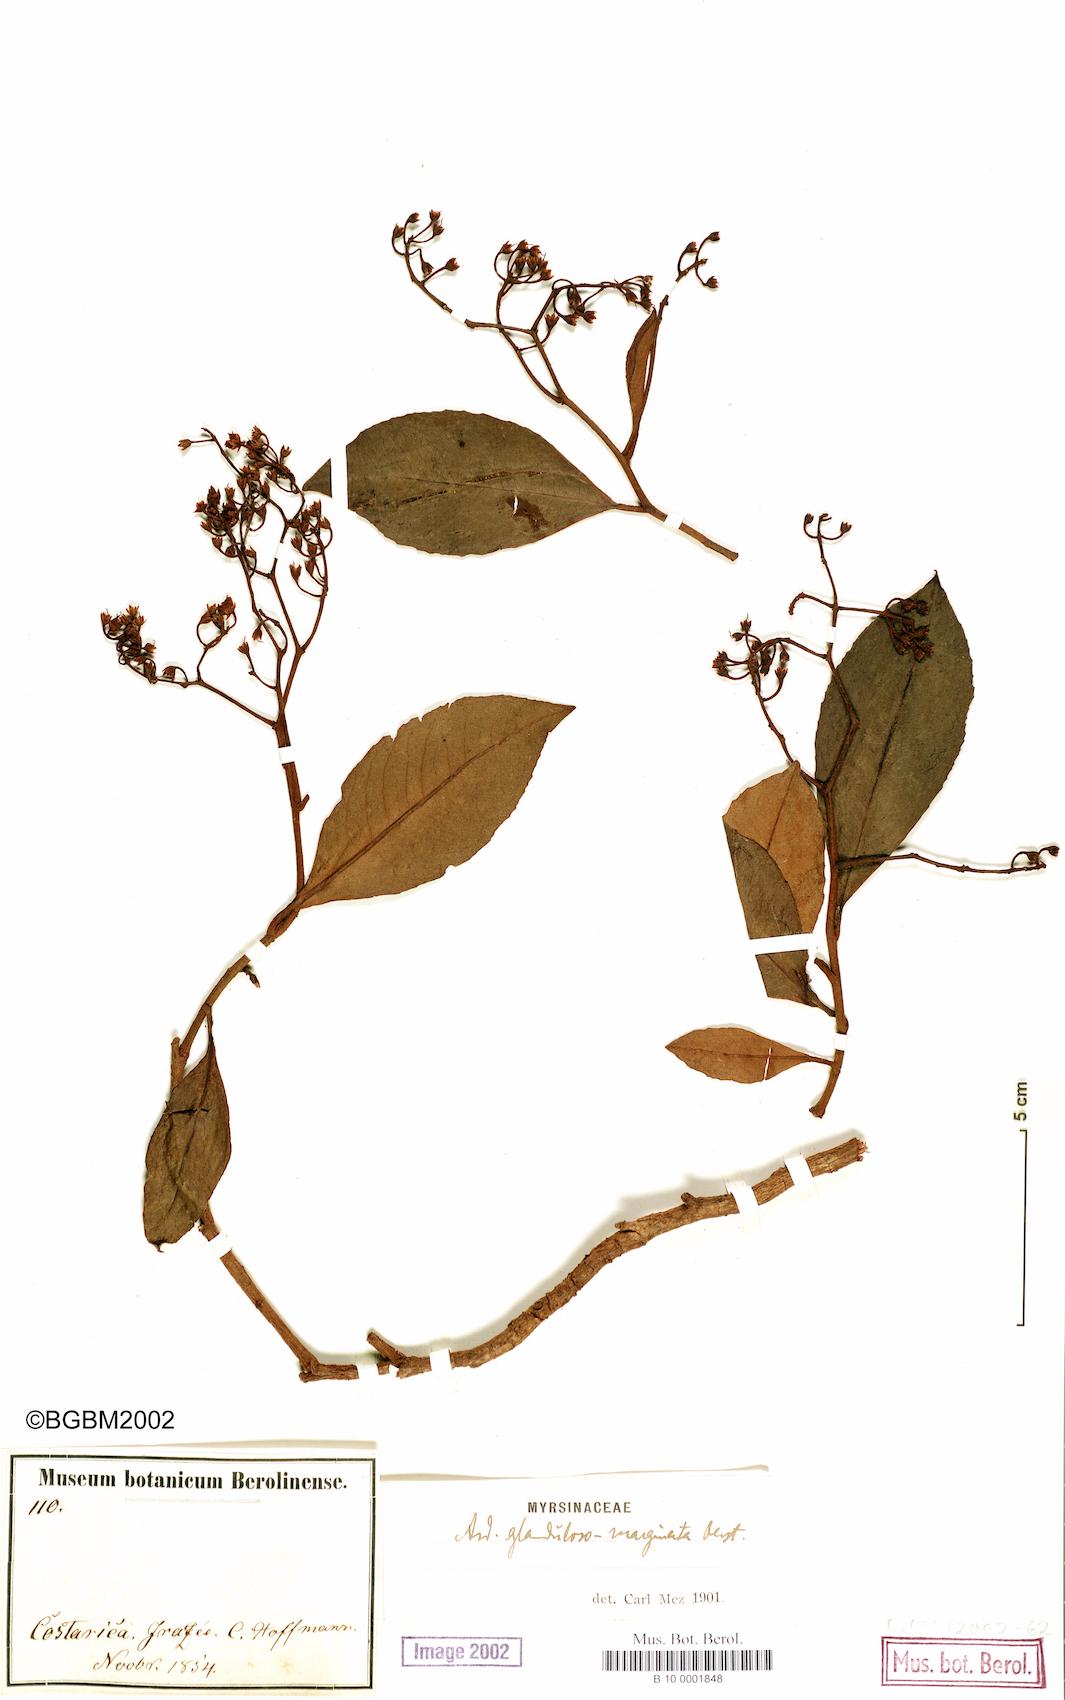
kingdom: Plantae
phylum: Tracheophyta
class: Magnoliopsida
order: Ericales
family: Primulaceae
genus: Ardisia
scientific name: Ardisia glandulosomarginata
